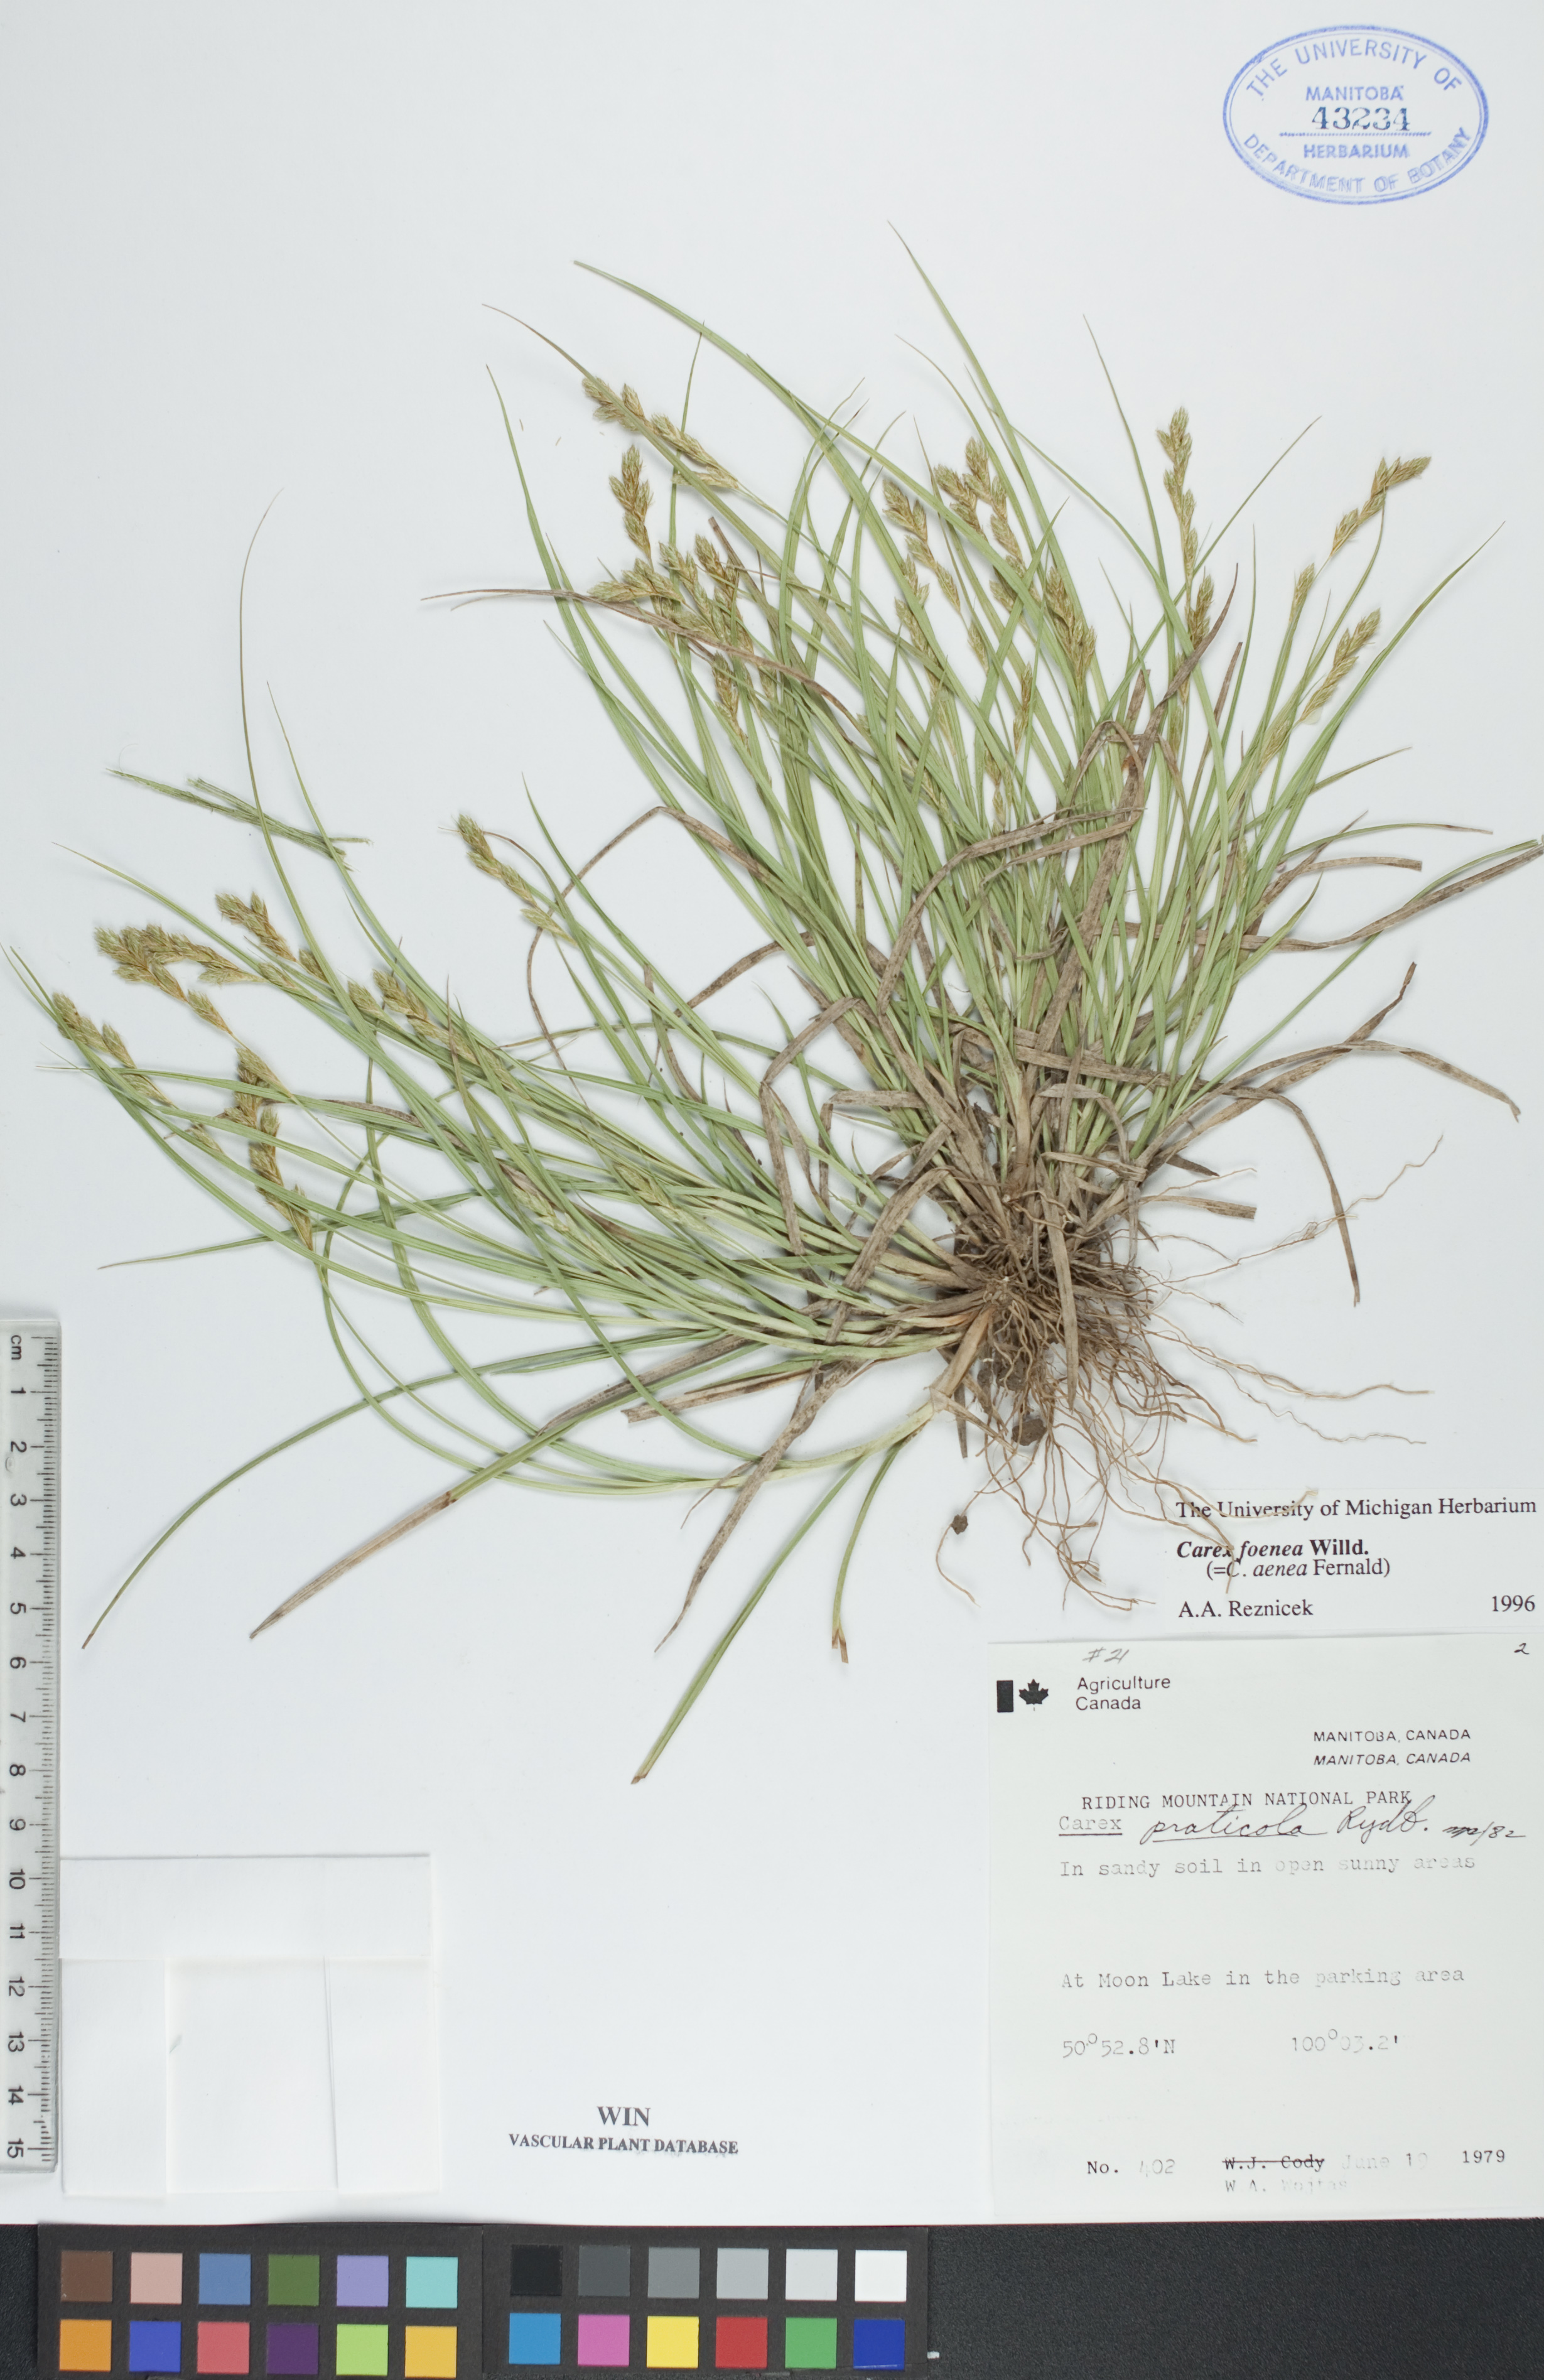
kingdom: Plantae
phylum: Tracheophyta
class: Liliopsida
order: Poales
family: Cyperaceae
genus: Carex
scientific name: Carex foenea
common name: Bronze sedge
